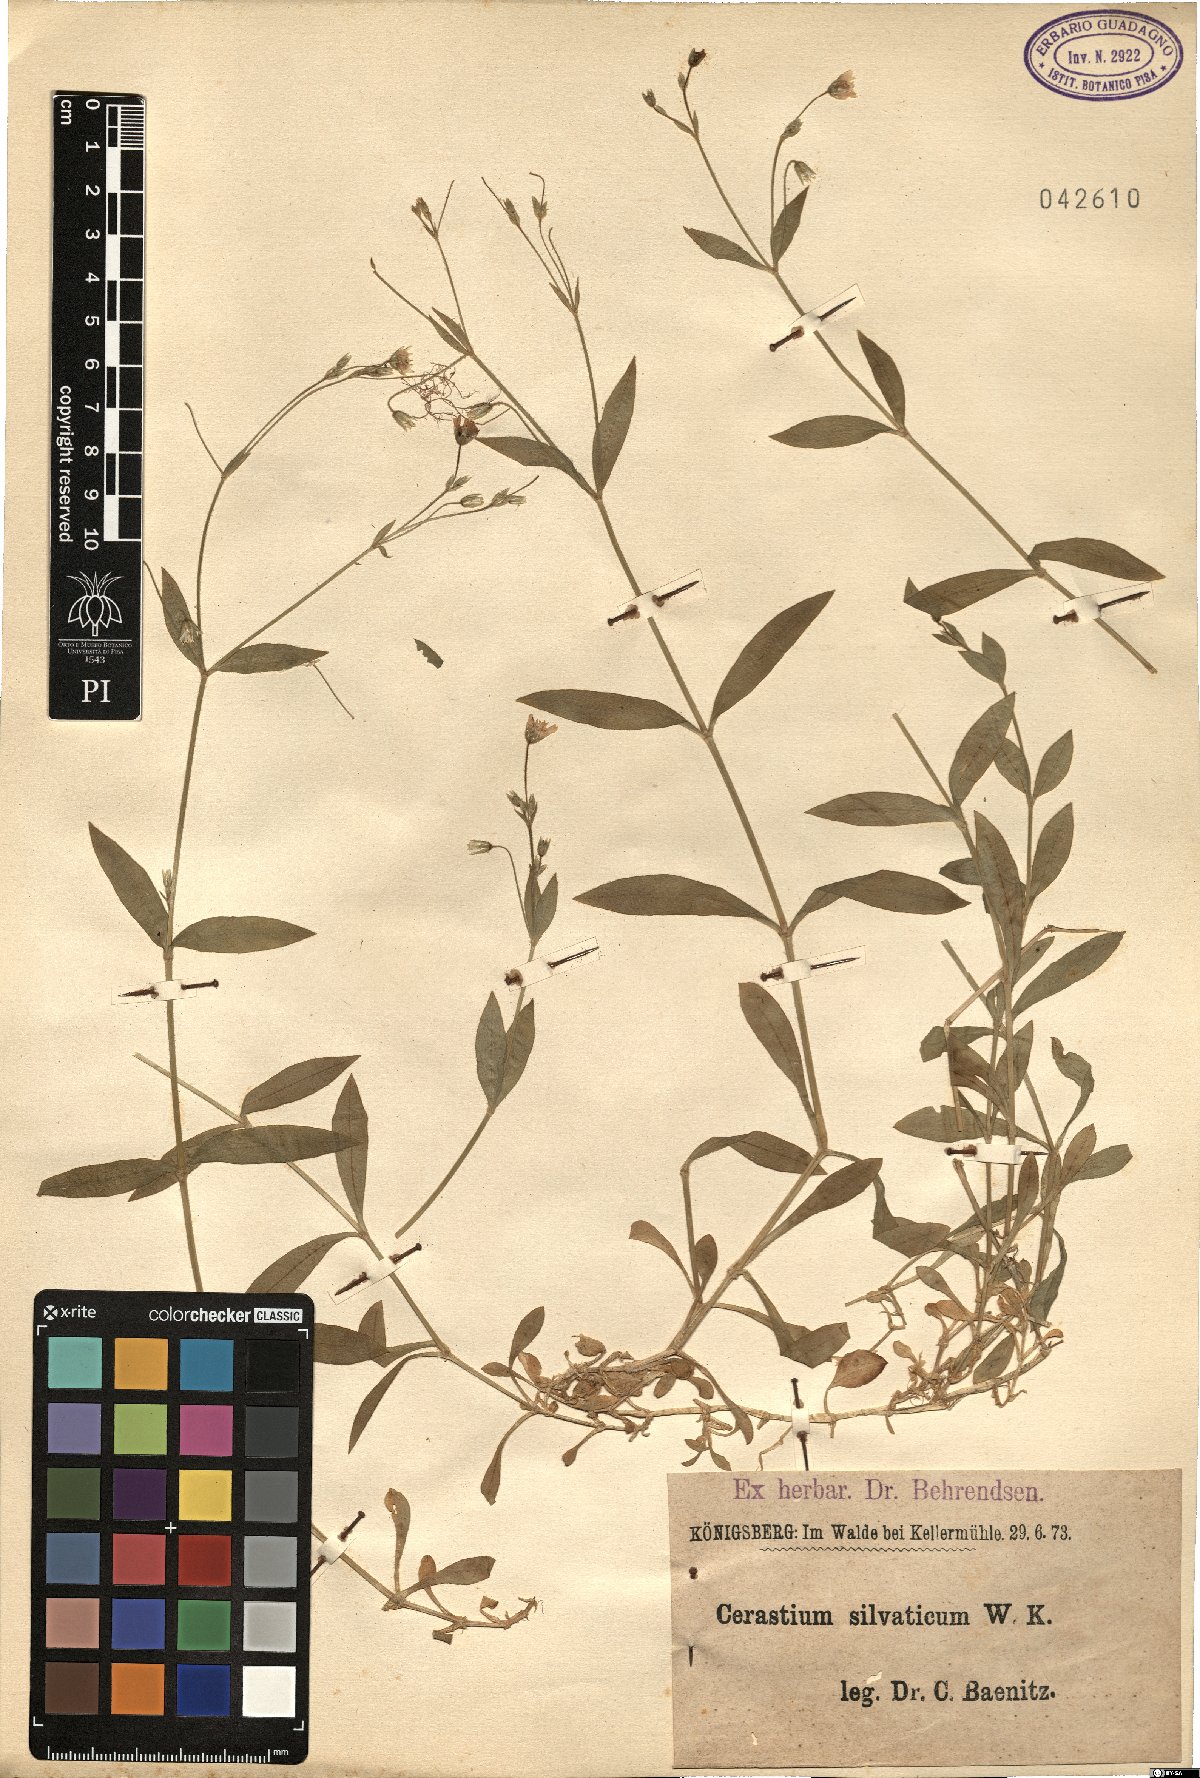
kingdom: Plantae
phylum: Tracheophyta
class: Magnoliopsida
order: Caryophyllales
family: Caryophyllaceae
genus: Cerastium
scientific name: Cerastium sylvaticum
